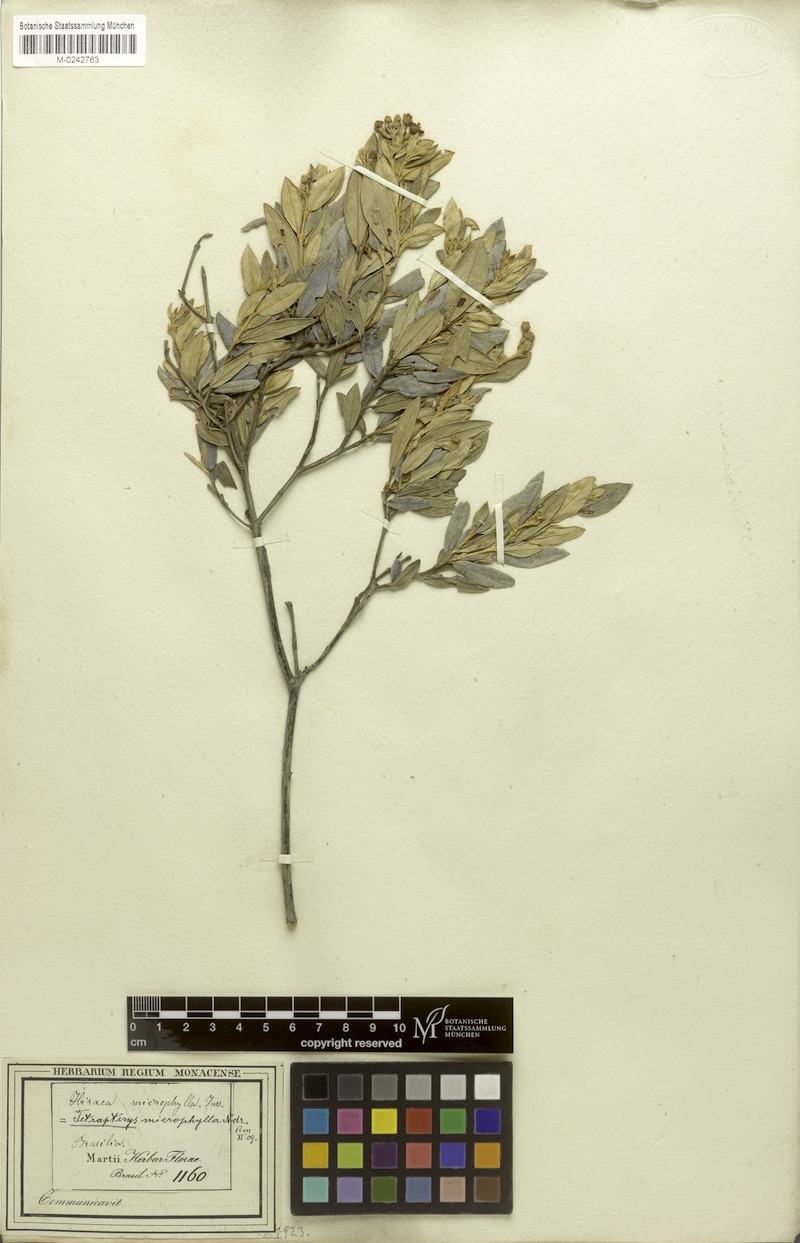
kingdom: Plantae
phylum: Tracheophyta
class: Magnoliopsida
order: Malpighiales
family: Malpighiaceae
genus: Glicophyllum
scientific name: Glicophyllum microphyllum
